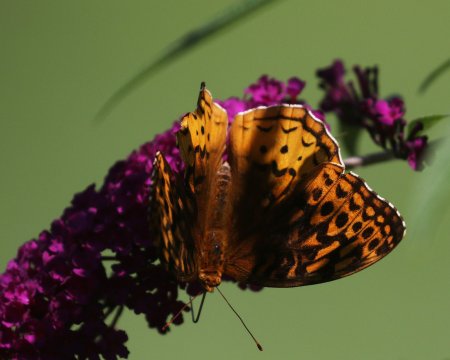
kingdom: Animalia
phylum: Arthropoda
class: Insecta
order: Lepidoptera
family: Nymphalidae
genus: Speyeria
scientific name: Speyeria cybele
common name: Great Spangled Fritillary
